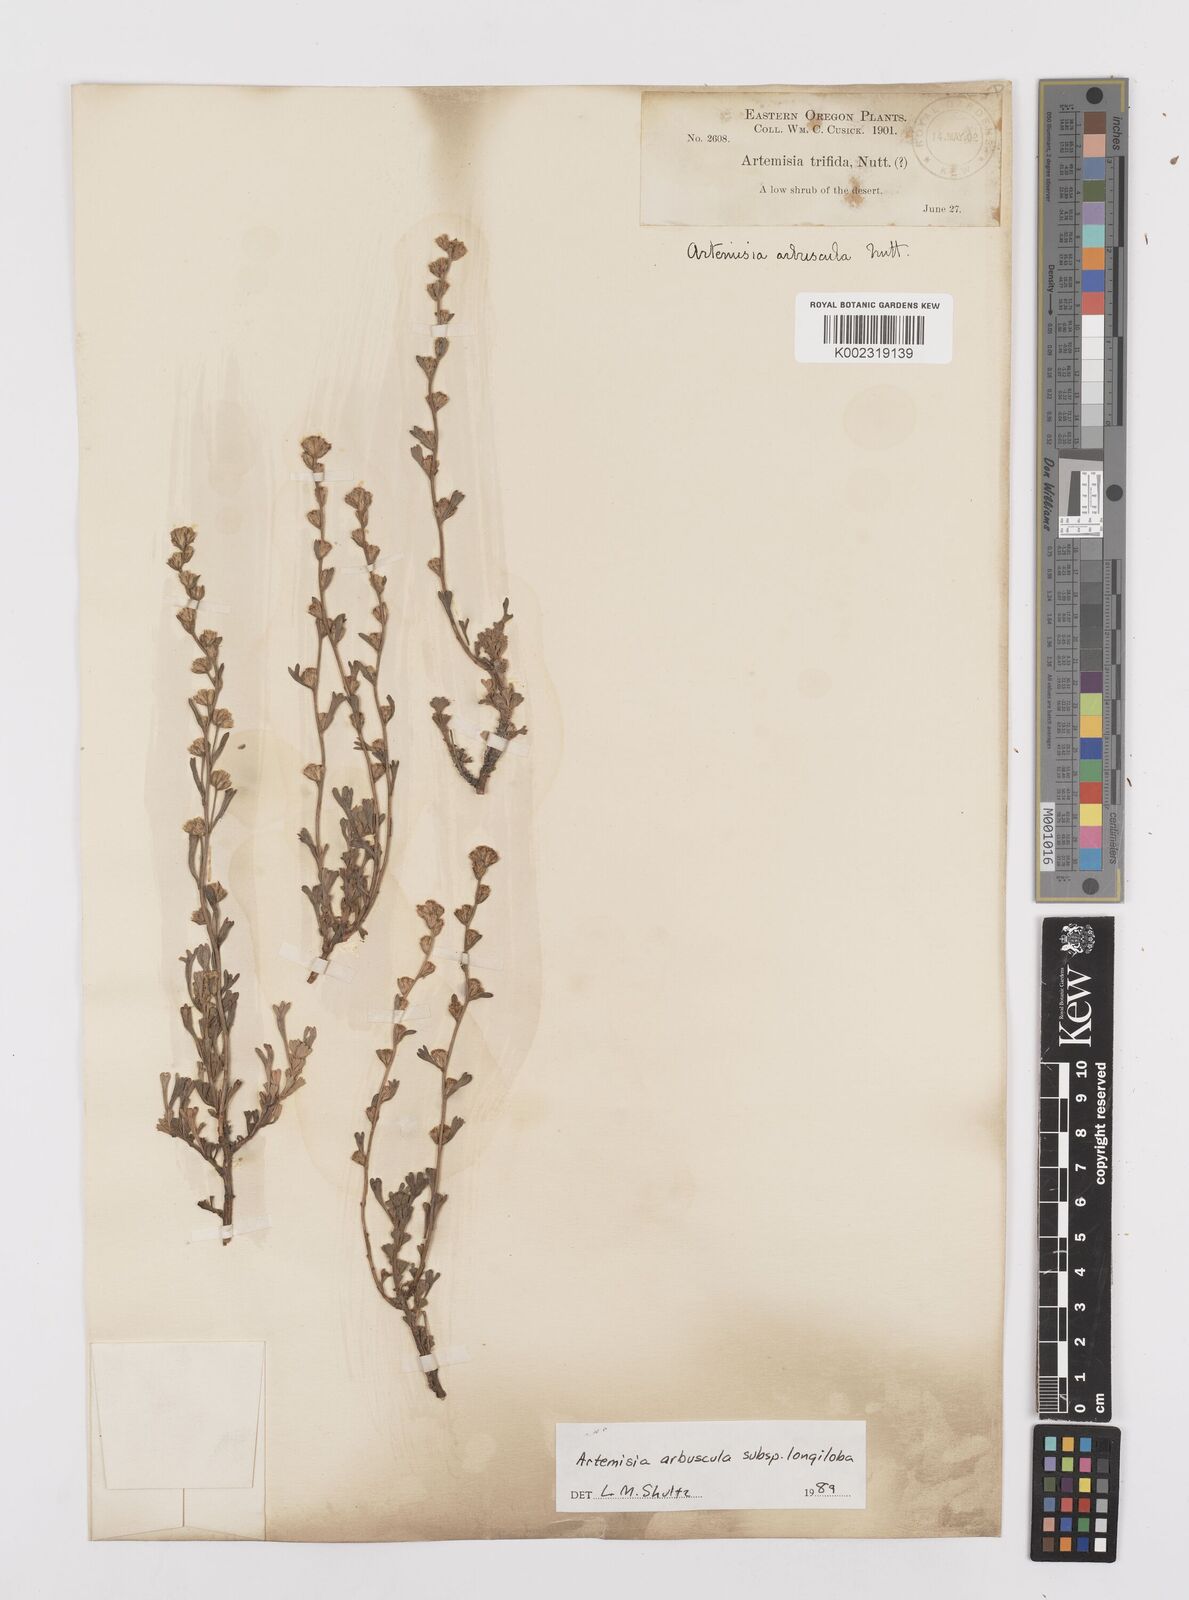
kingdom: Plantae
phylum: Tracheophyta
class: Magnoliopsida
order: Asterales
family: Asteraceae
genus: Artemisia
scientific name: Artemisia arbuscula
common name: Sagebrush
